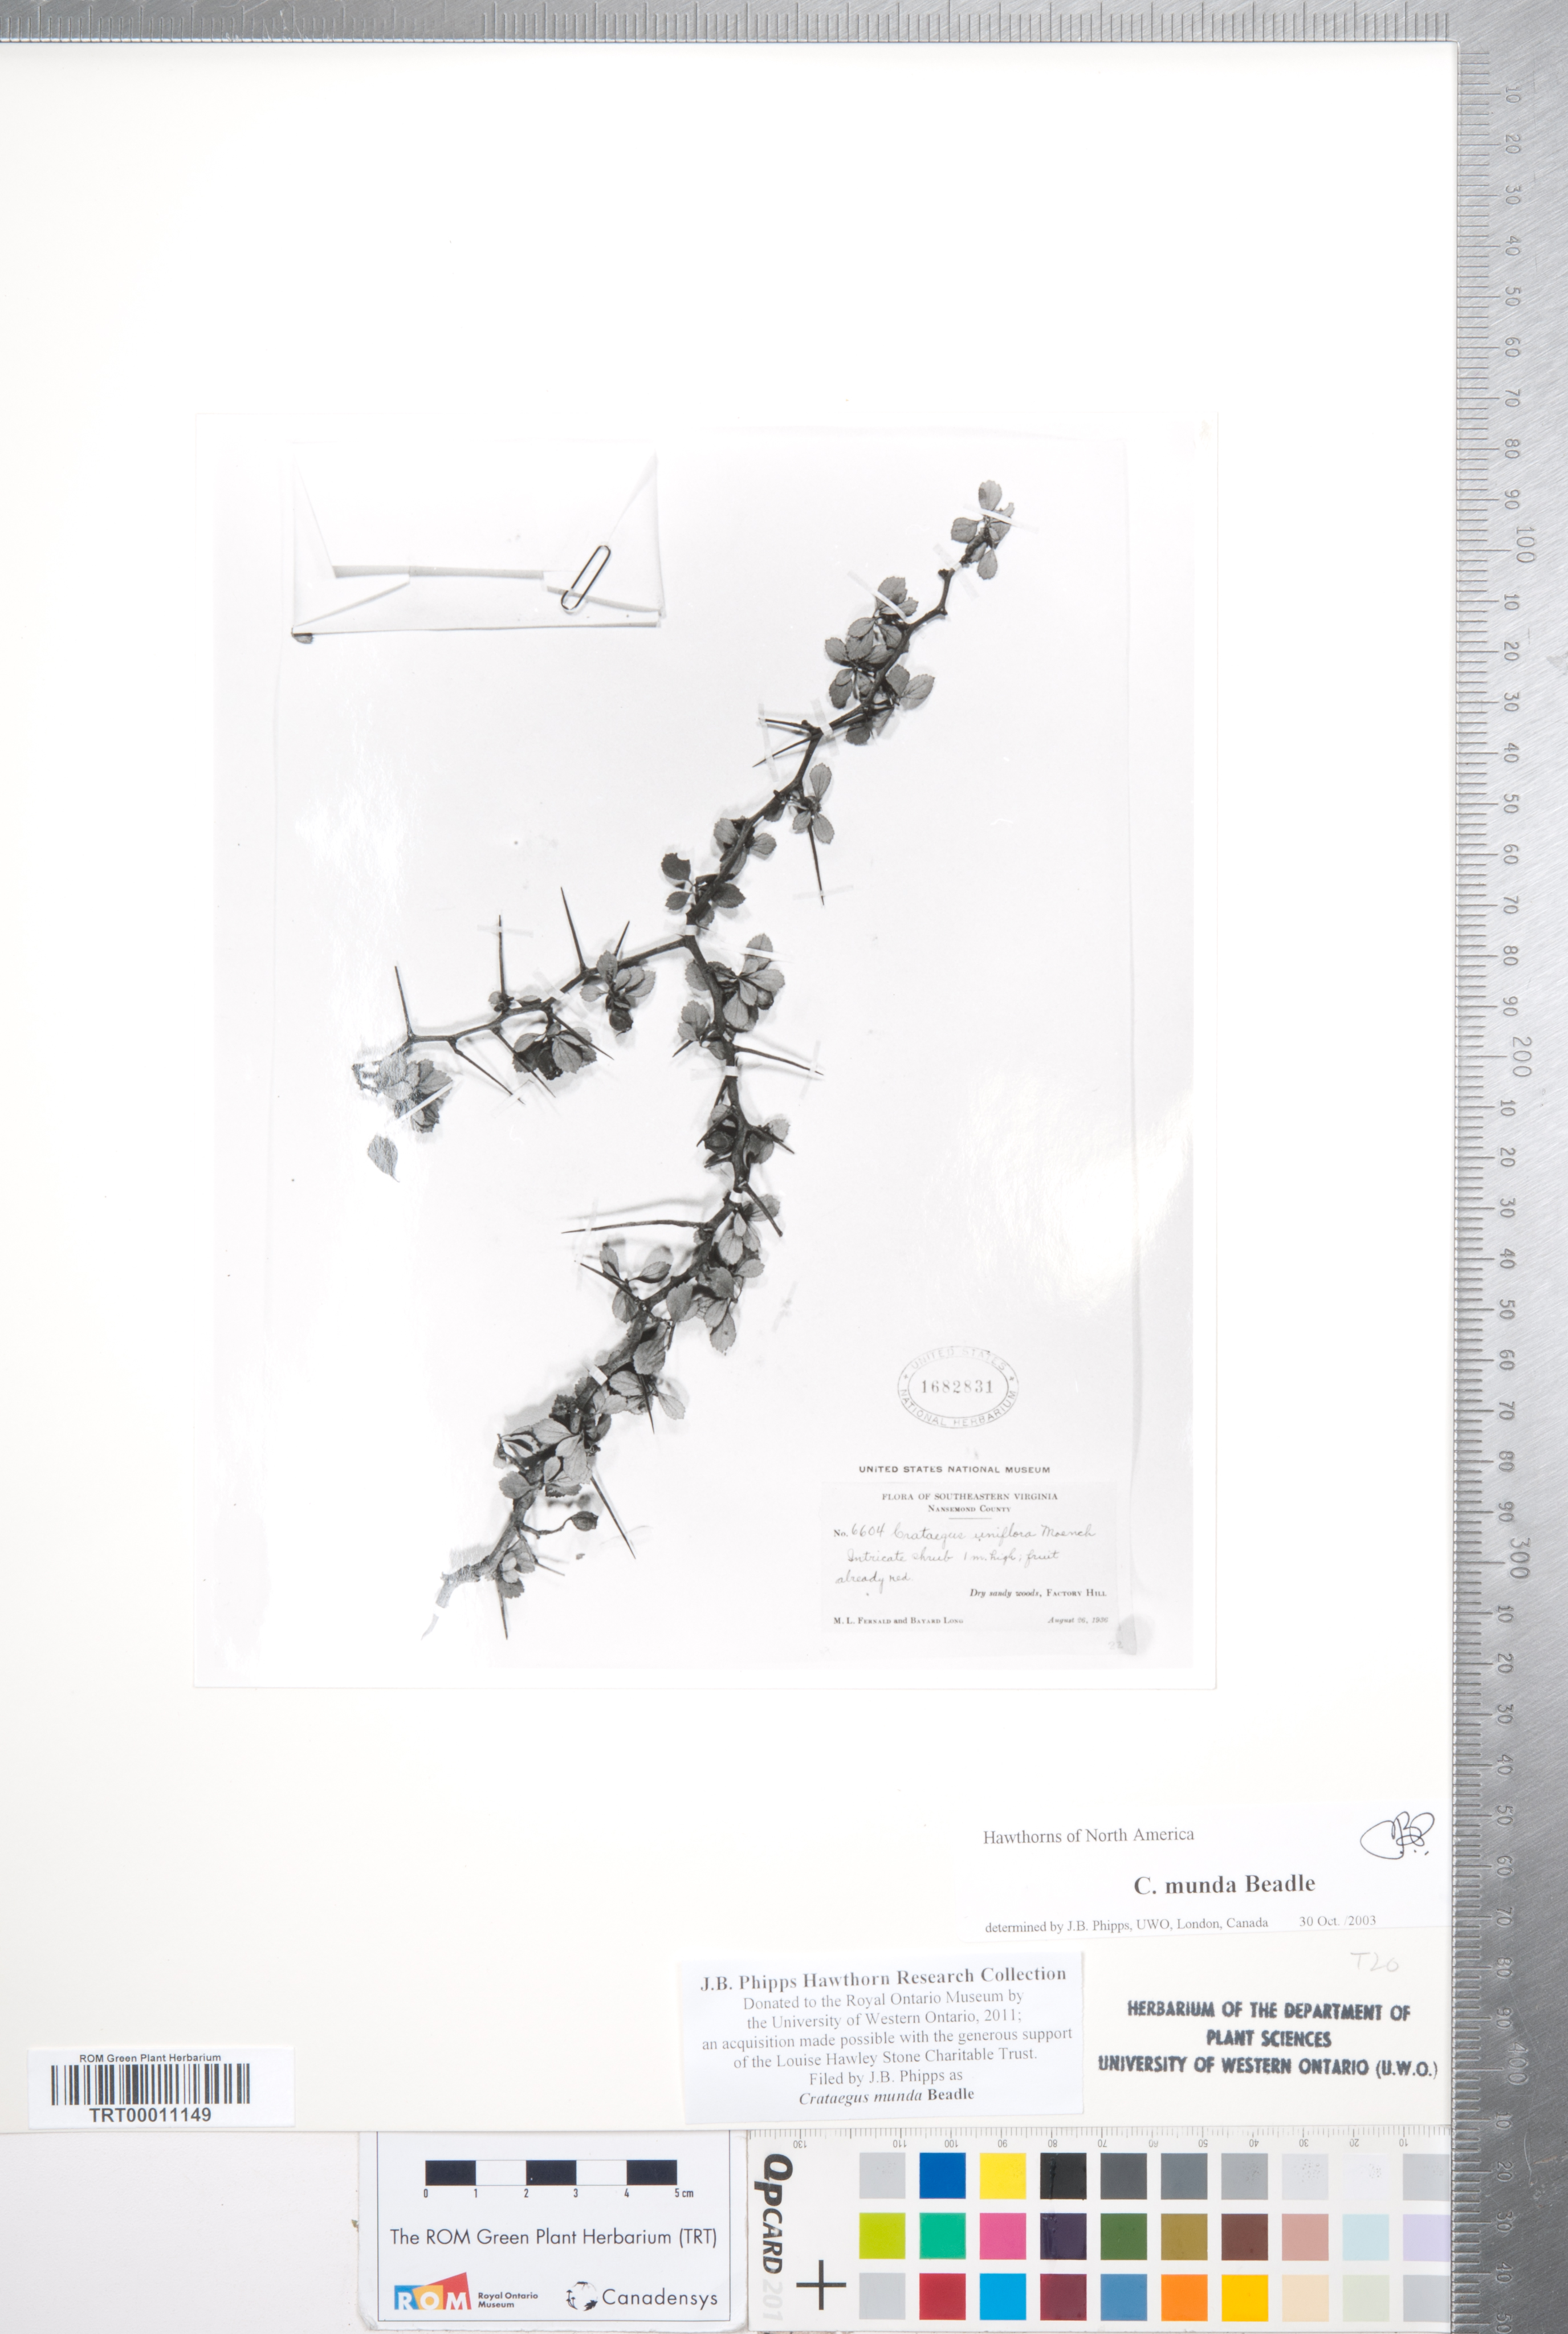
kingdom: Plantae
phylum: Tracheophyta
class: Magnoliopsida
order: Rosales
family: Rosaceae
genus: Crataegus
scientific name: Crataegus munda
